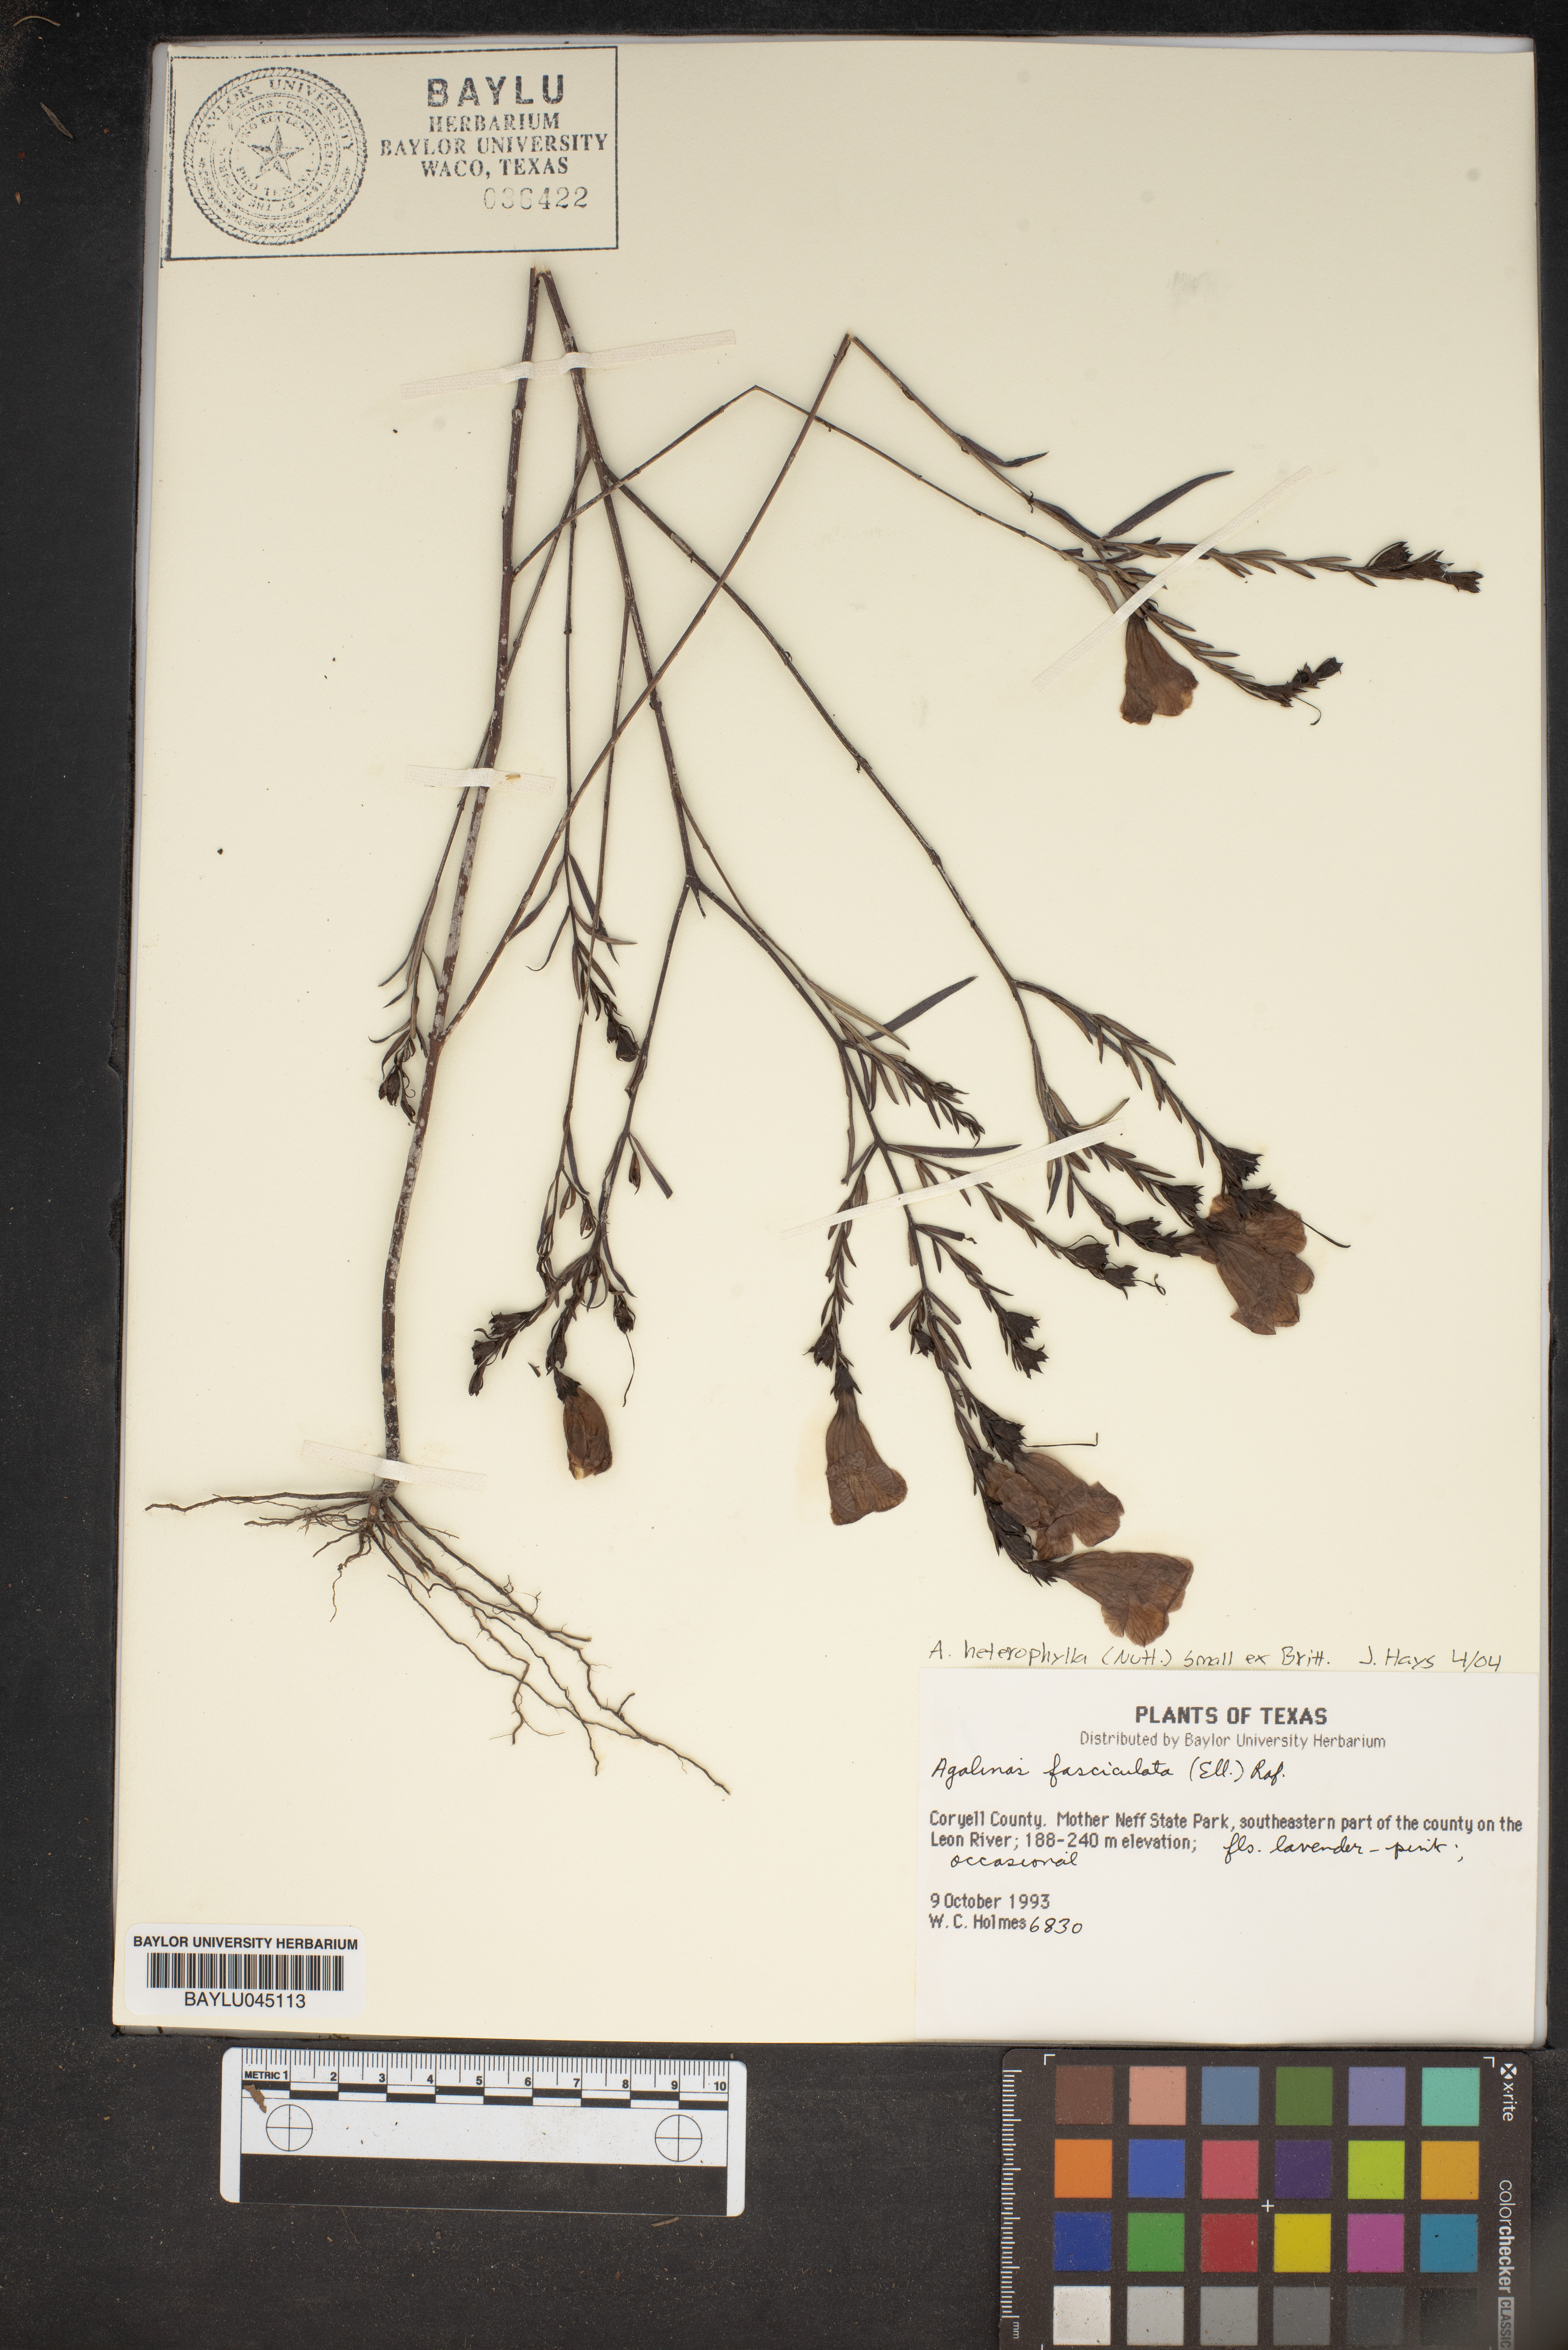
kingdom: Plantae
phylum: Tracheophyta
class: Magnoliopsida
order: Lamiales
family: Orobanchaceae
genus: Agalinis
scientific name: Agalinis fasciculata
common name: Beach false foxglove
